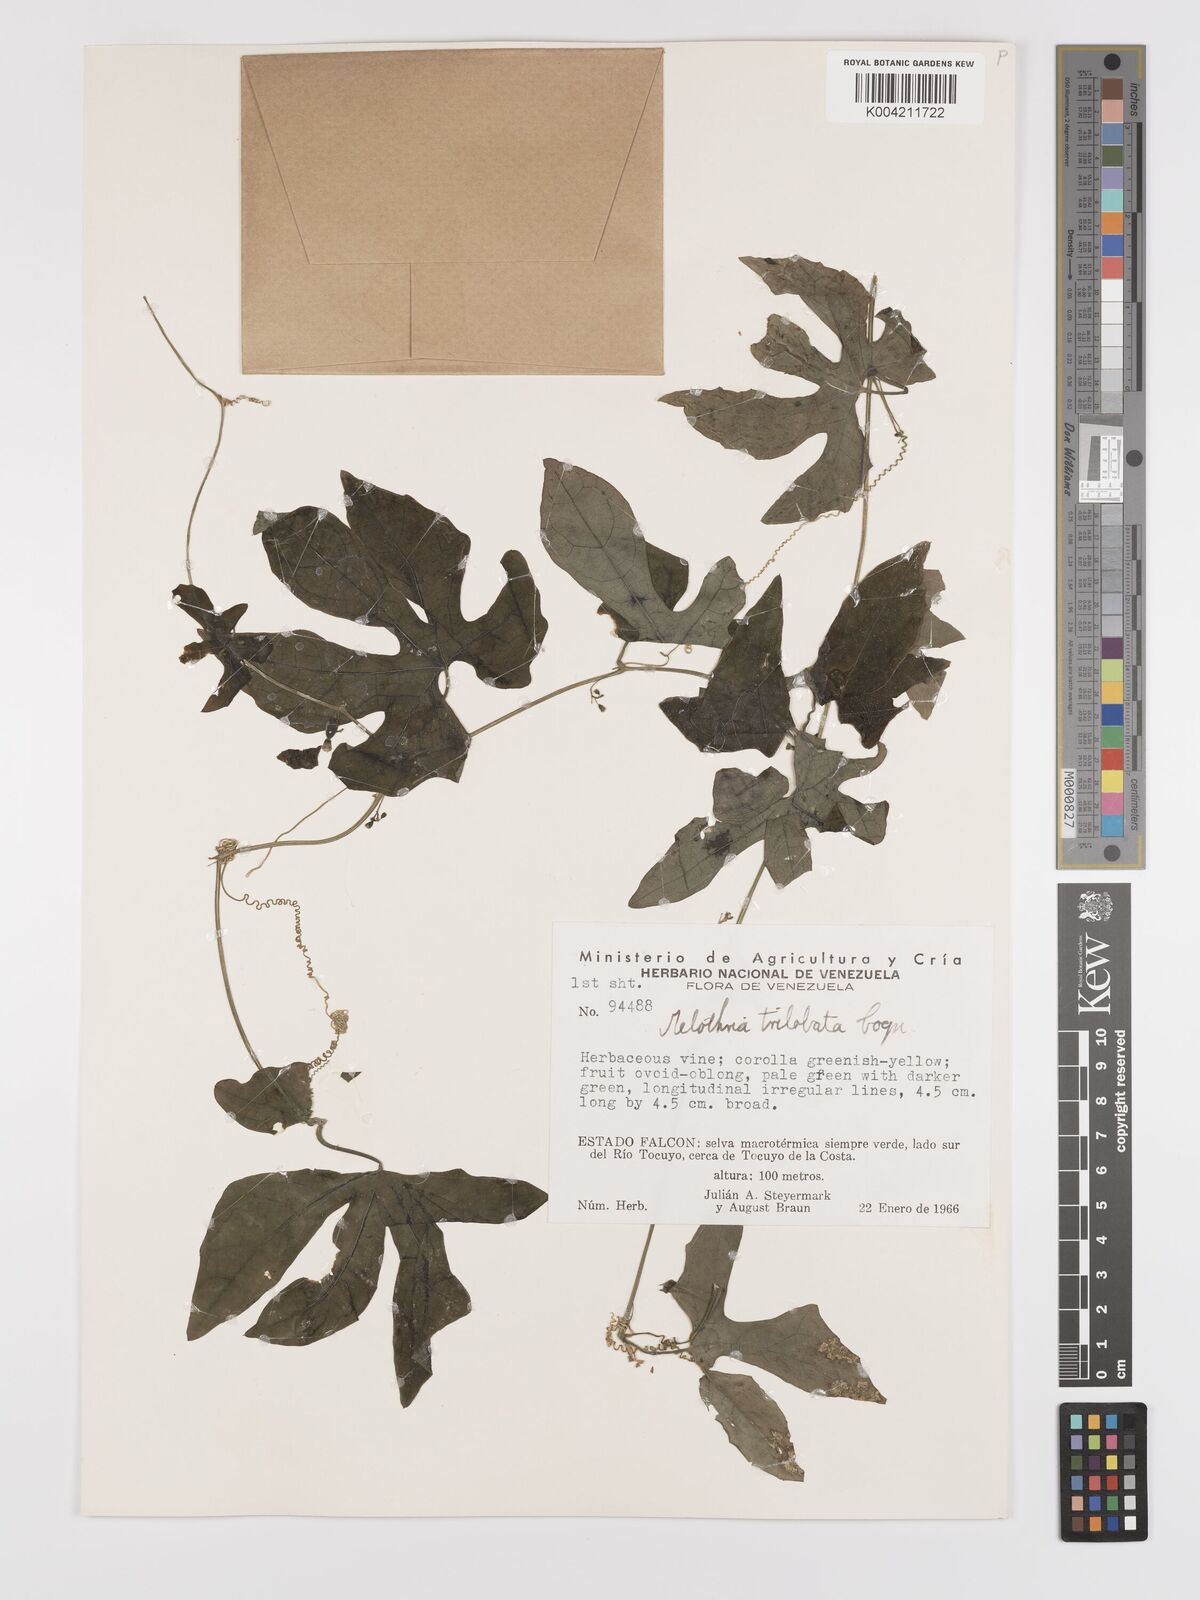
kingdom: Plantae
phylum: Tracheophyta
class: Magnoliopsida
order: Cucurbitales
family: Cucurbitaceae
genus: Melothria
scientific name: Melothria trilobata
